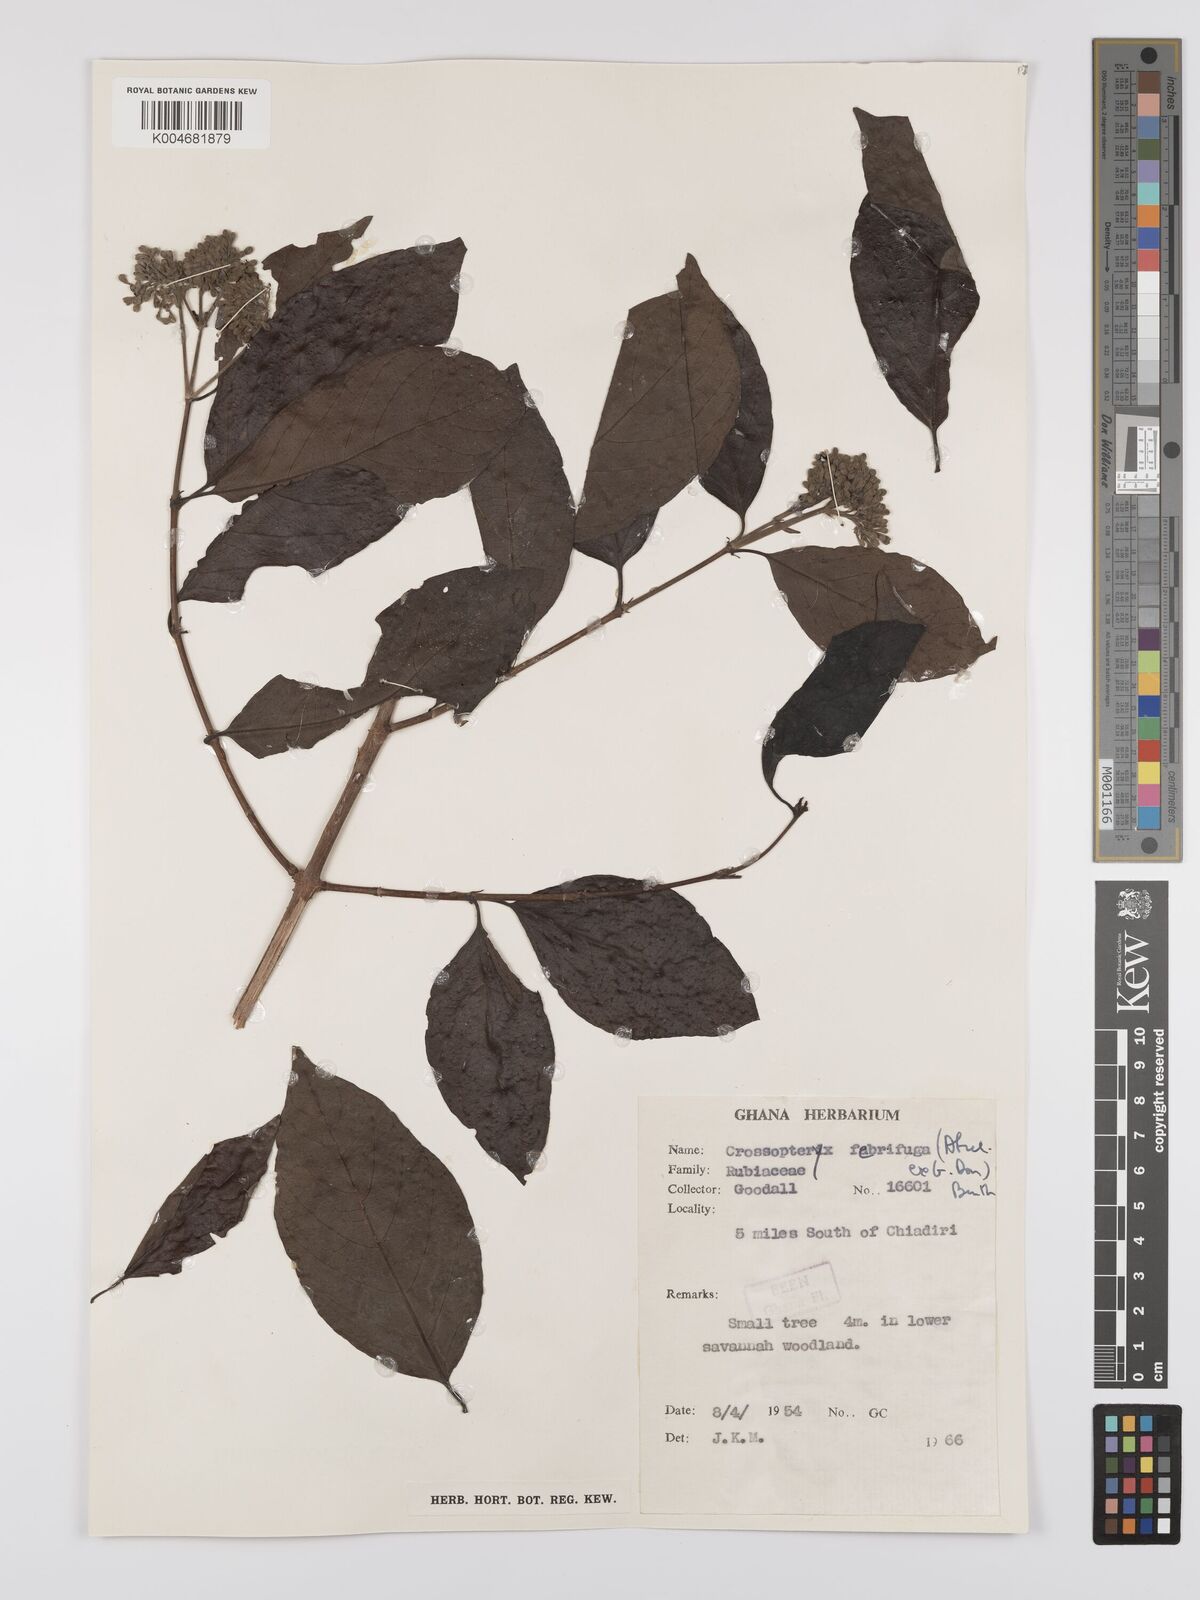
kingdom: Plantae
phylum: Tracheophyta
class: Magnoliopsida
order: Gentianales
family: Rubiaceae
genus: Crossopteryx
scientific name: Crossopteryx febrifuga
